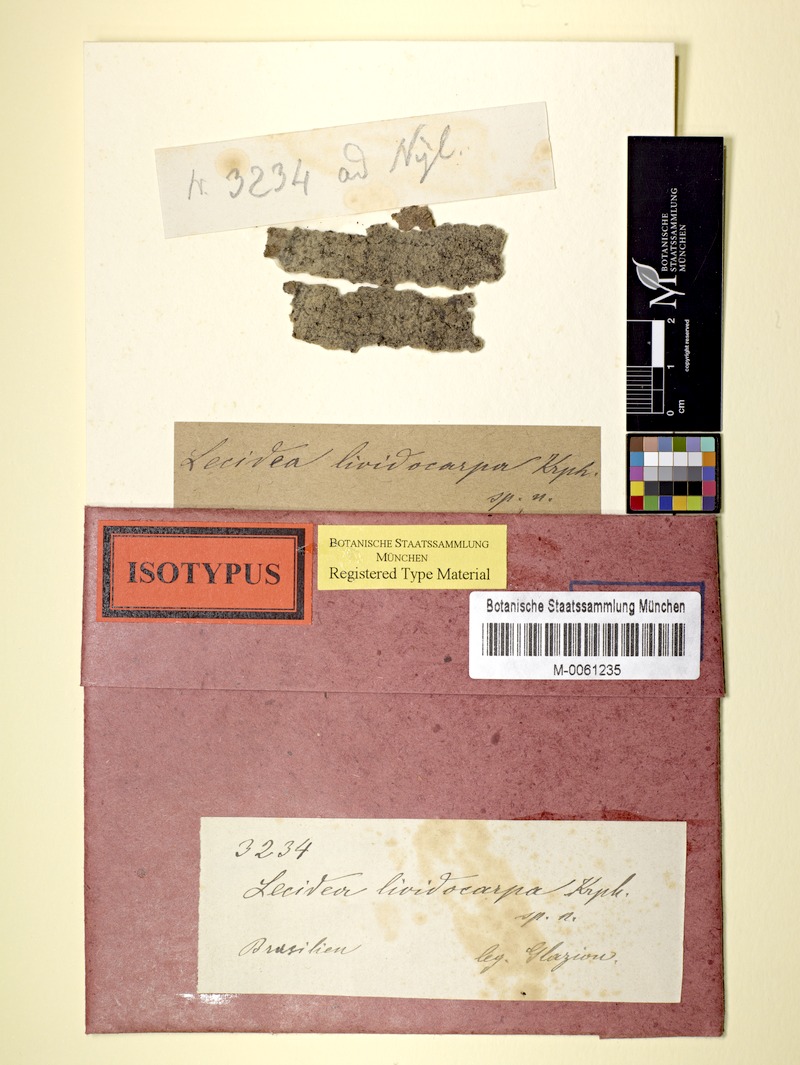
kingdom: Fungi
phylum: Ascomycota
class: Lecanoromycetes
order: Lecanorales
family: Catillariaceae
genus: Catillaria
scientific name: Catillaria
